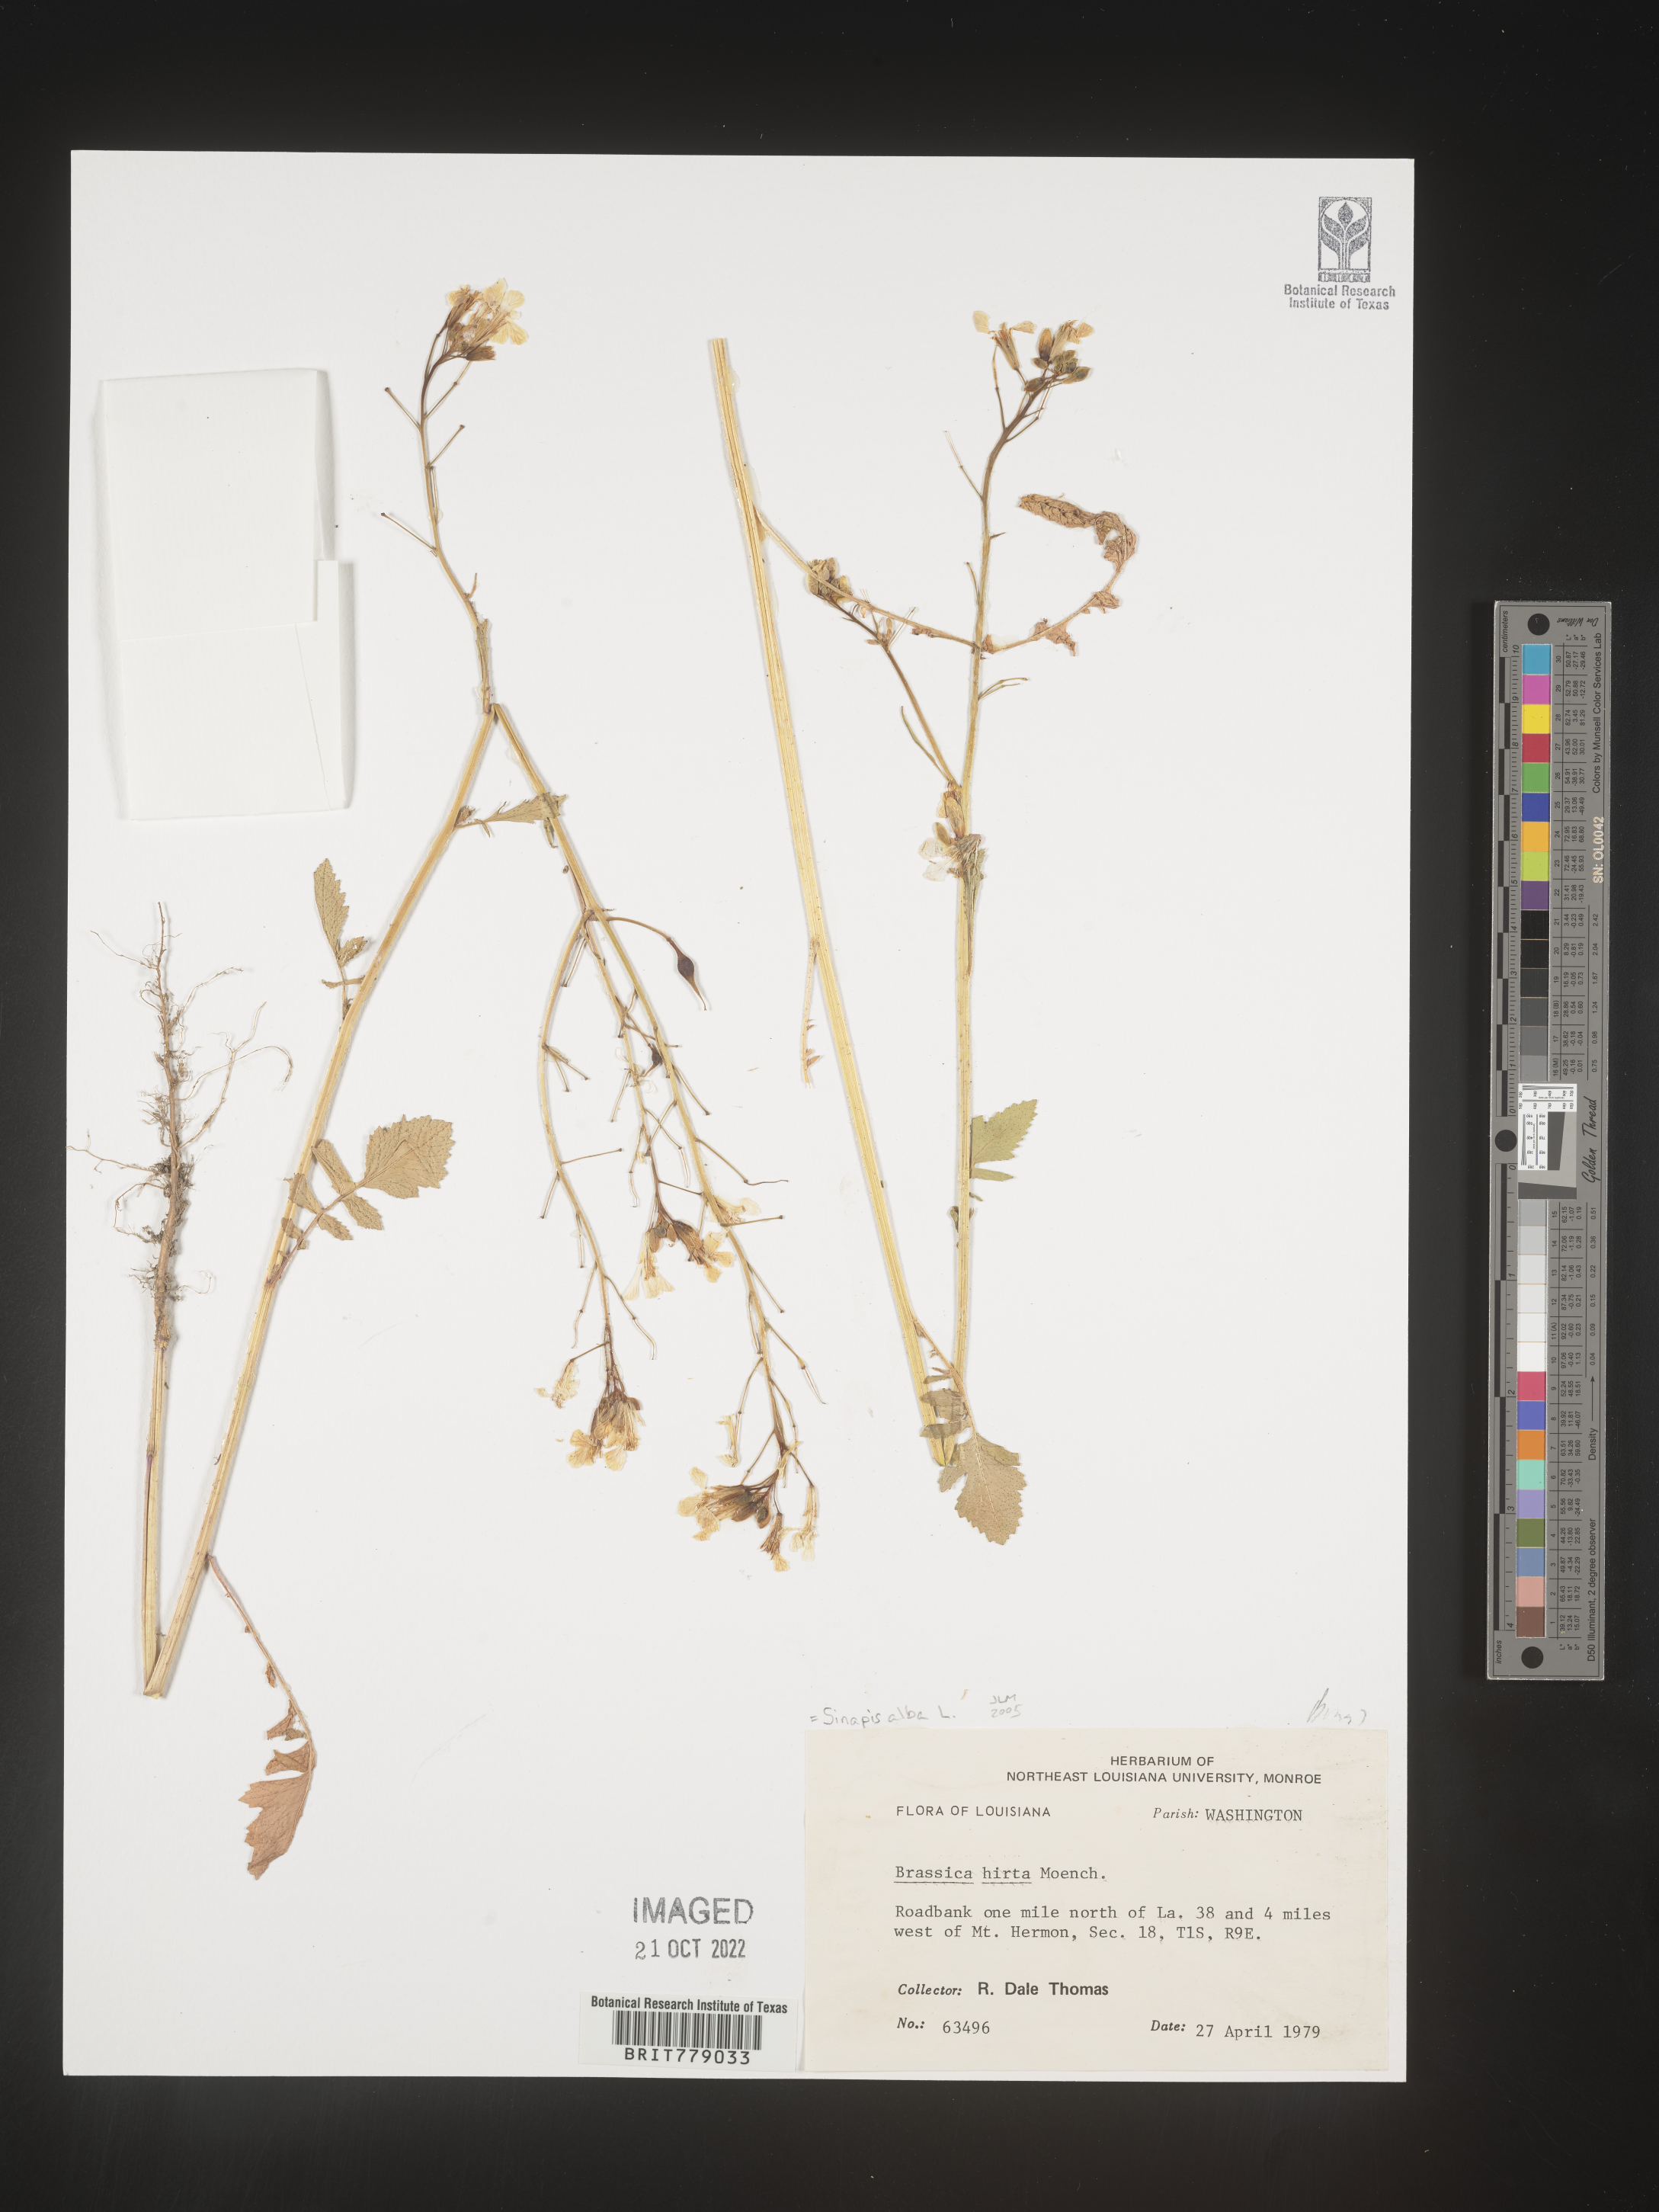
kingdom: Plantae
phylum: Tracheophyta
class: Magnoliopsida
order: Brassicales
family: Brassicaceae
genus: Sinapis
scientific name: Sinapis
